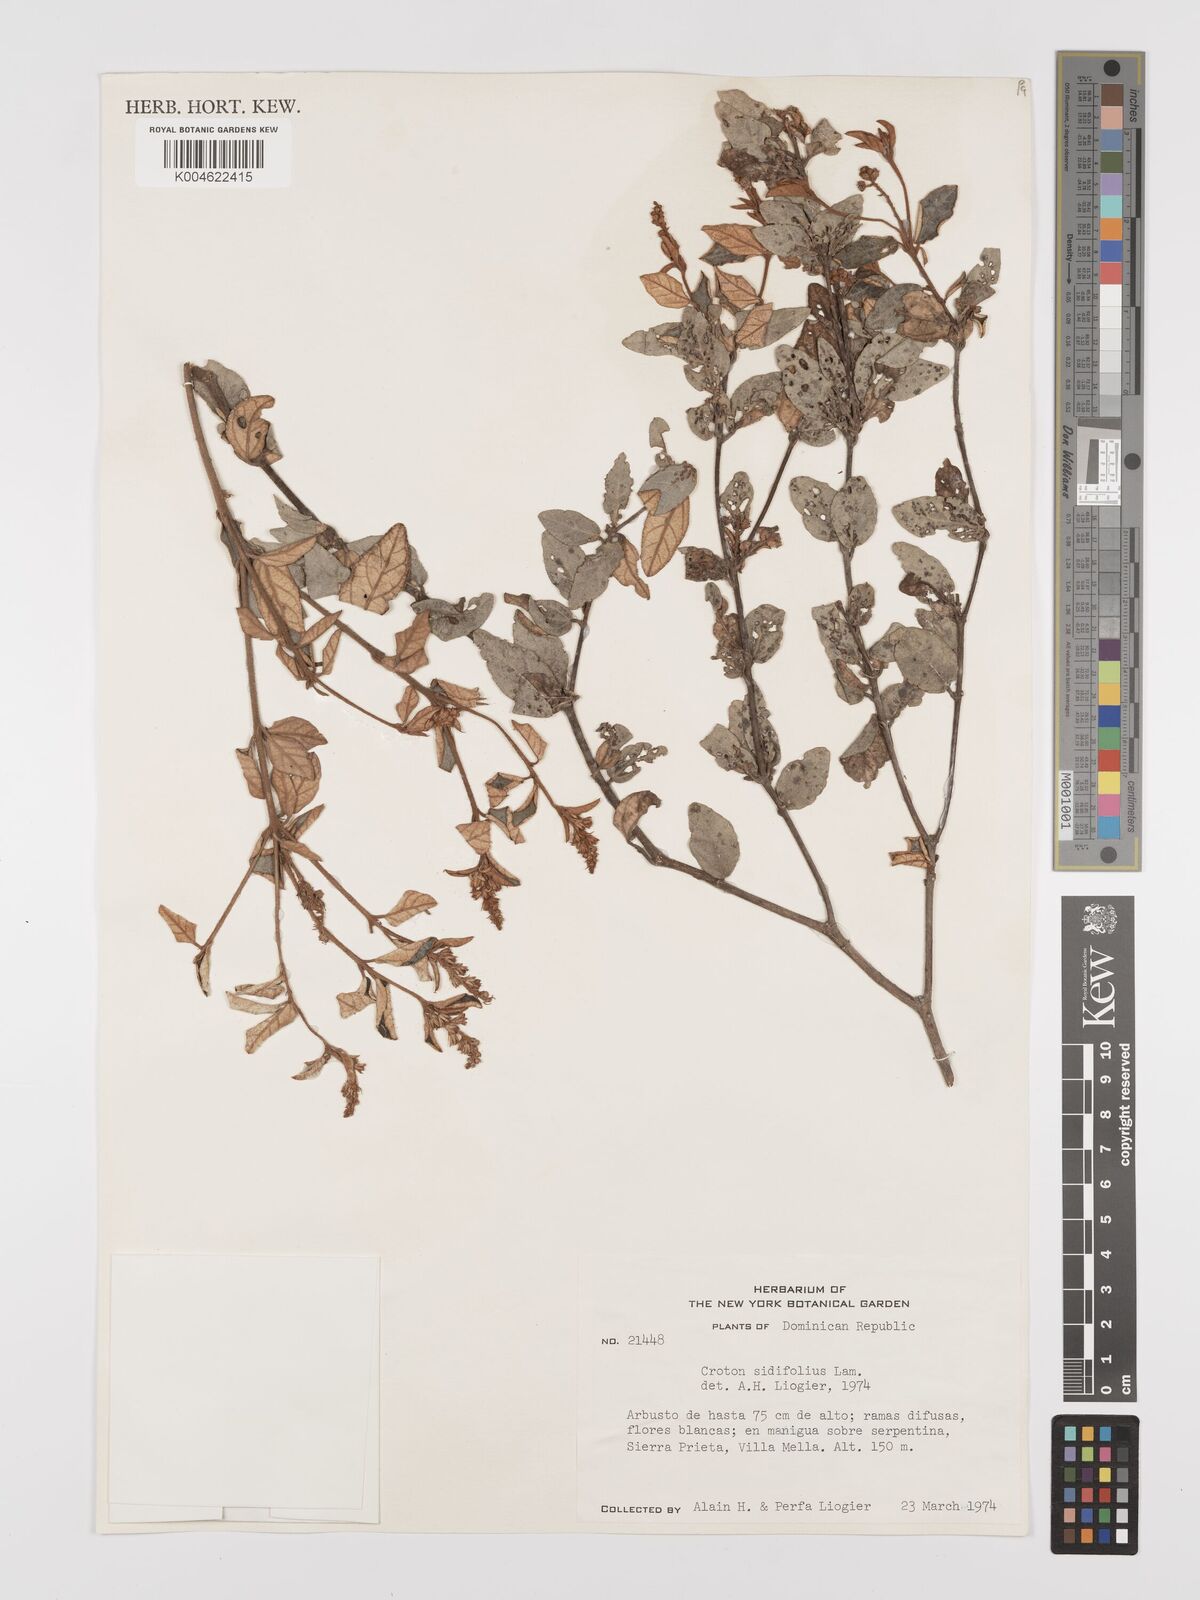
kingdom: Plantae
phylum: Tracheophyta
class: Magnoliopsida
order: Malpighiales
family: Euphorbiaceae
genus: Croton
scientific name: Croton sidifolius
